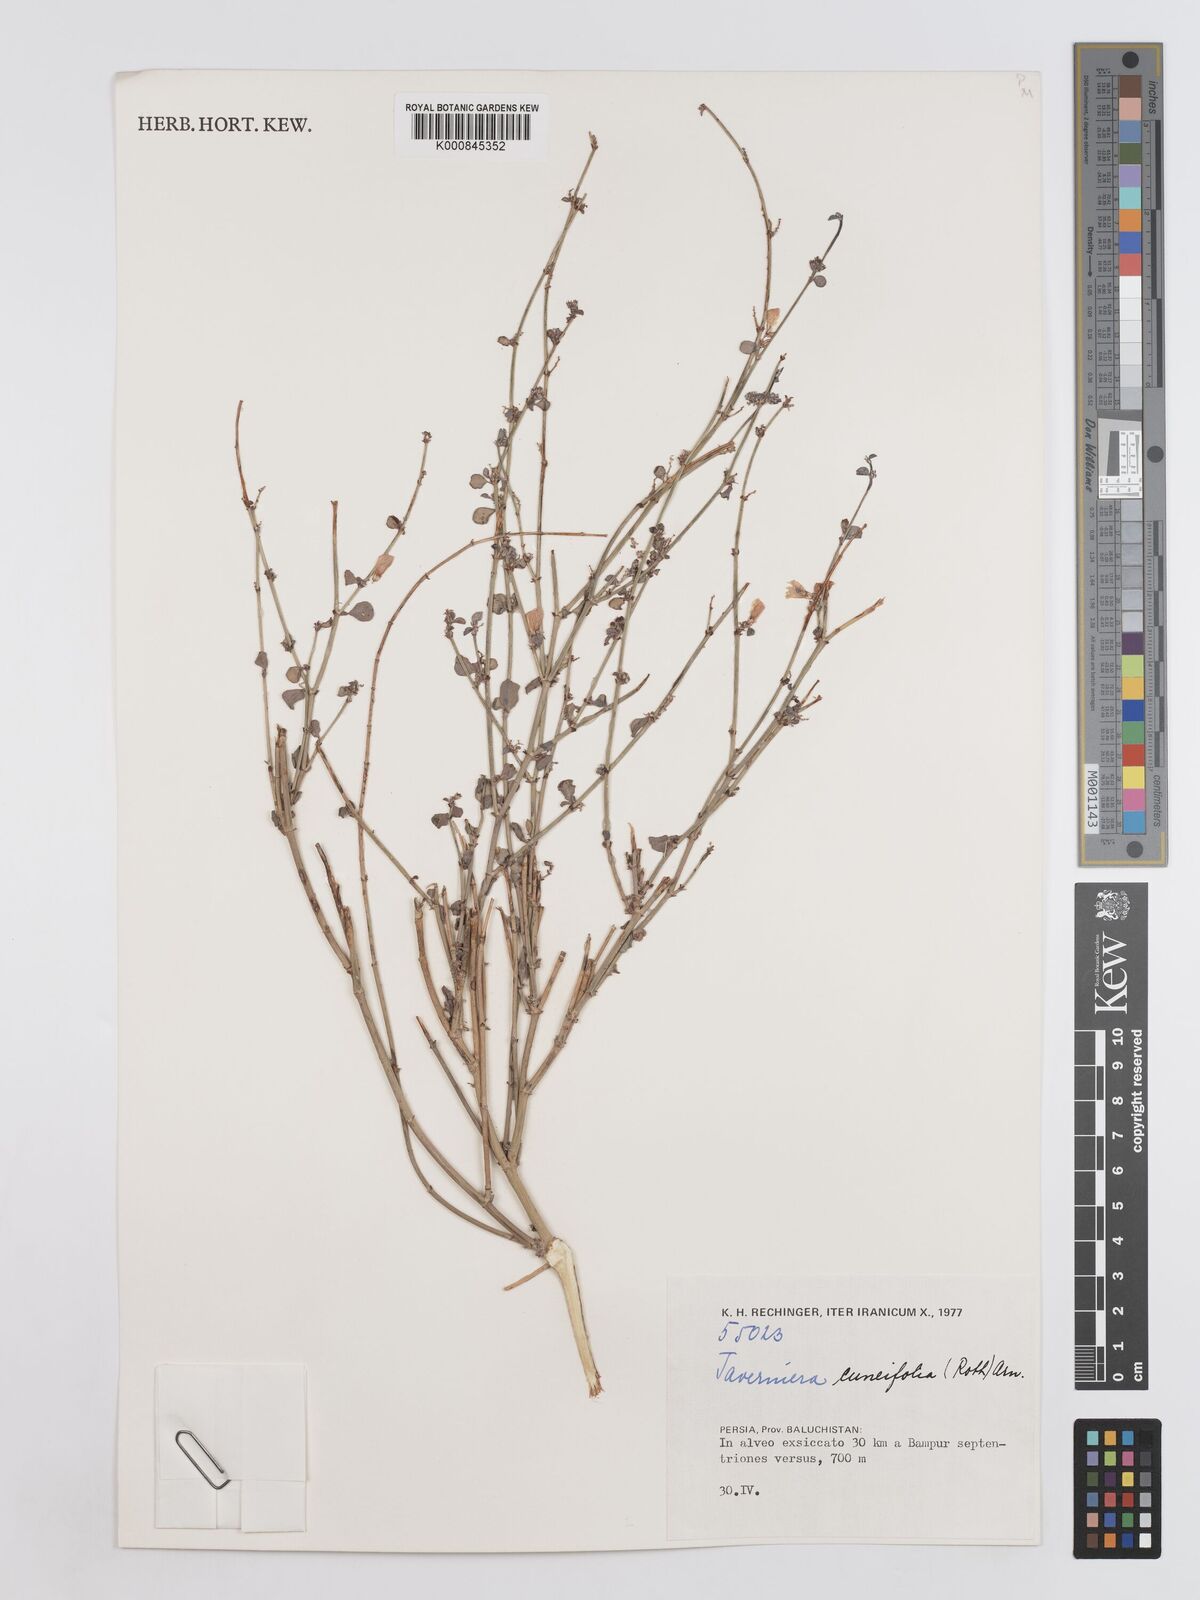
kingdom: Plantae
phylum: Tracheophyta
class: Magnoliopsida
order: Fabales
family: Fabaceae
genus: Taverniera
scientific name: Taverniera cuneifolia
